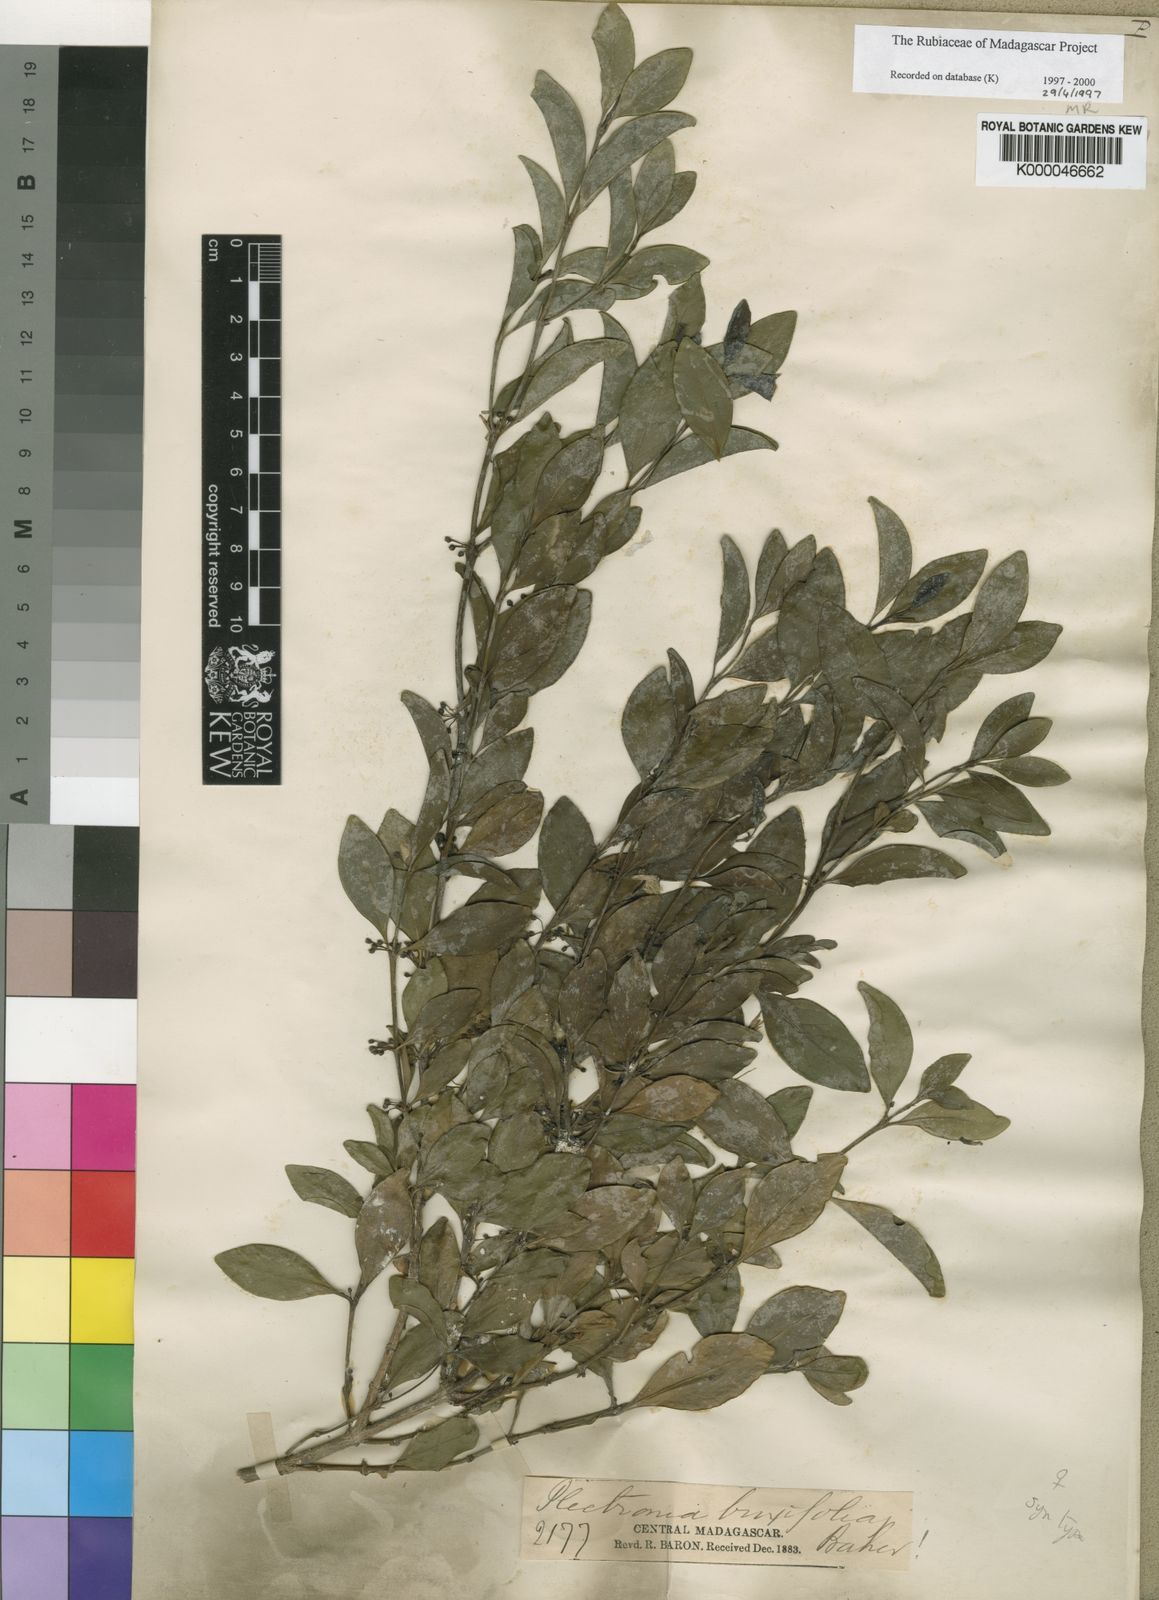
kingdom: Plantae
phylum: Tracheophyta
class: Magnoliopsida
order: Gentianales
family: Rubiaceae
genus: Peponidium
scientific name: Peponidium buxifolium
